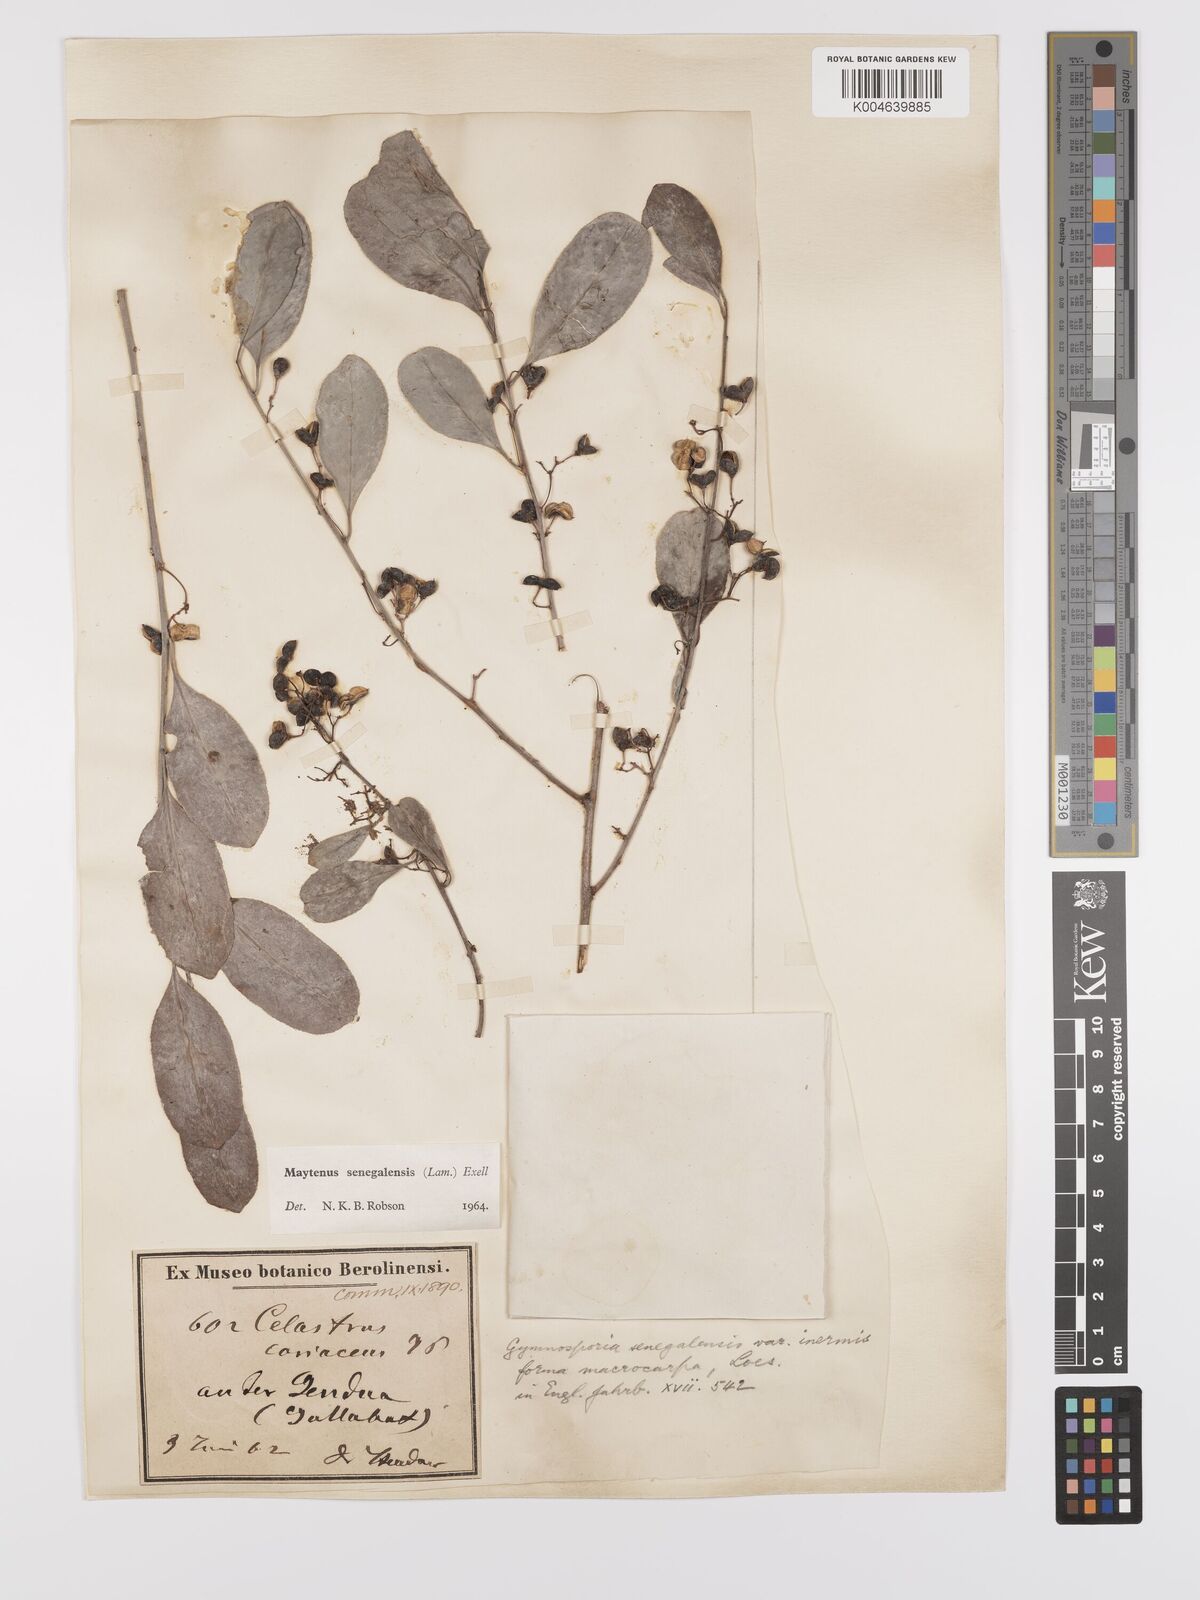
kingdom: Plantae
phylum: Tracheophyta
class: Magnoliopsida
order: Celastrales
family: Celastraceae
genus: Gymnosporia
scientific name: Gymnosporia senegalensis
